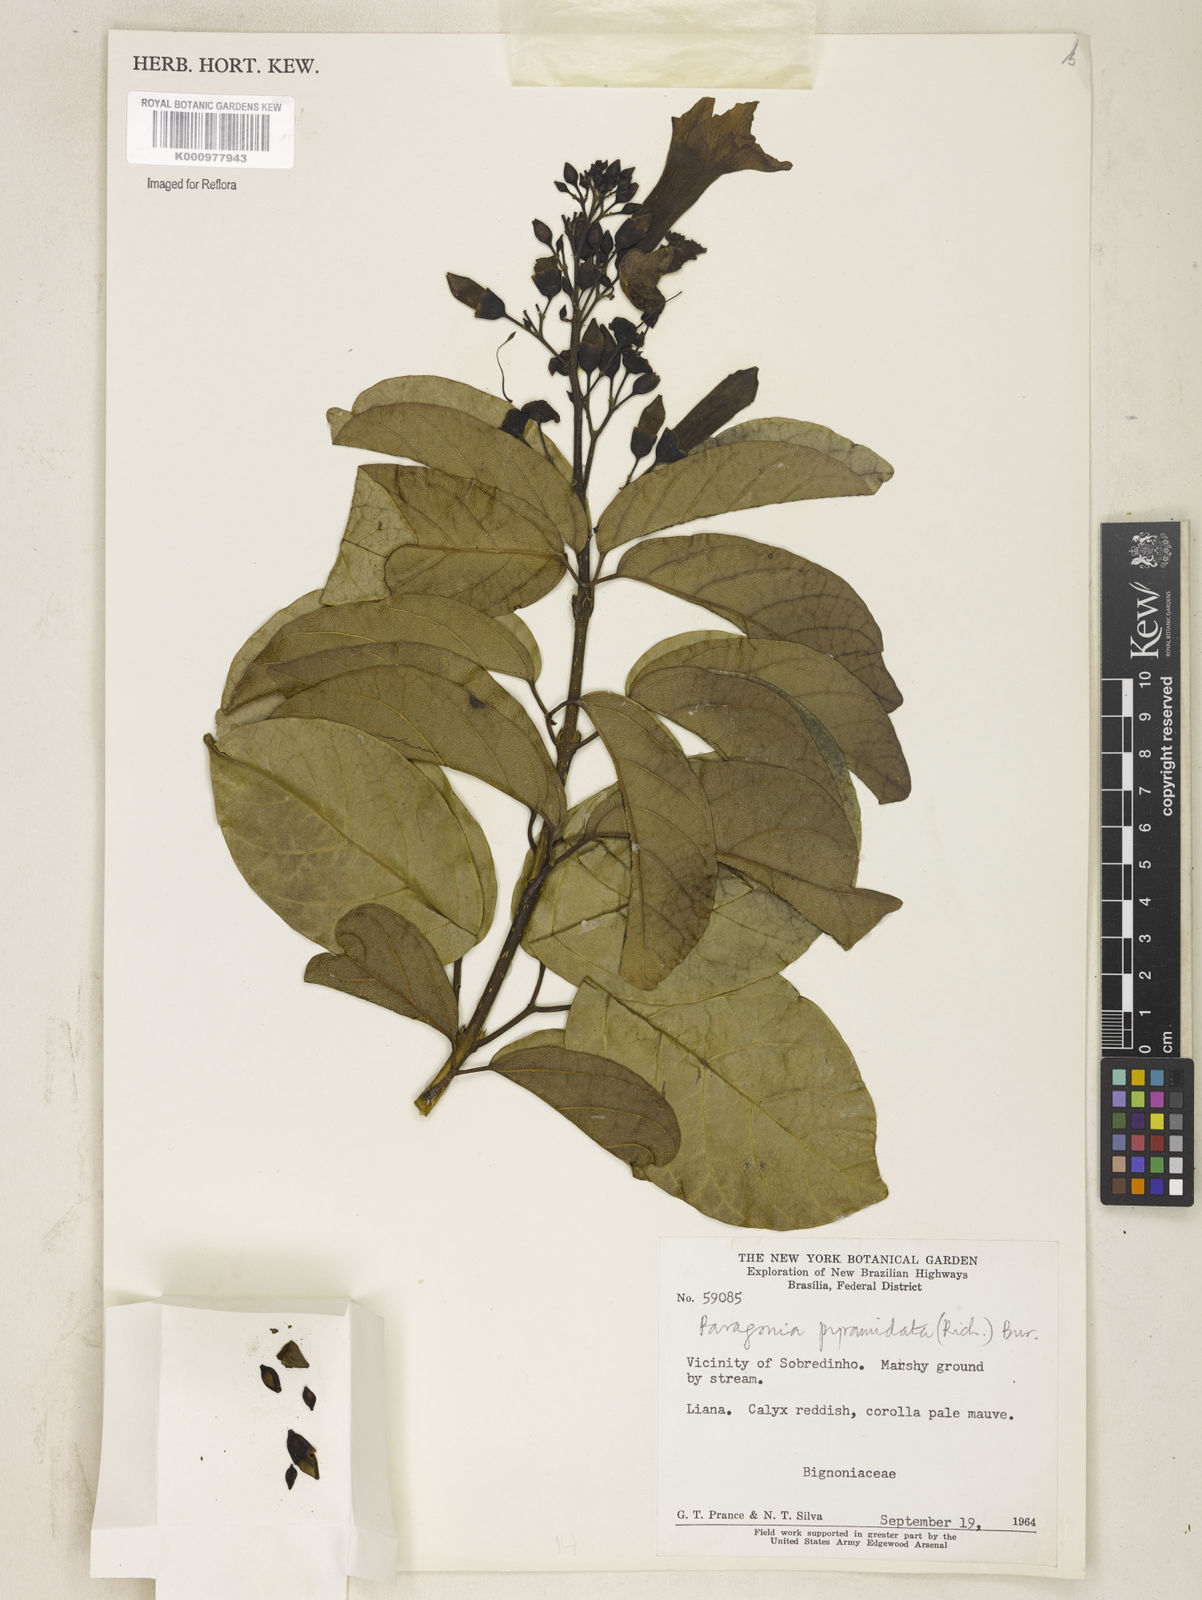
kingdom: Plantae
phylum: Tracheophyta
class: Magnoliopsida
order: Lamiales
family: Bignoniaceae
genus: Tanaecium
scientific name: Tanaecium pyramidatum
